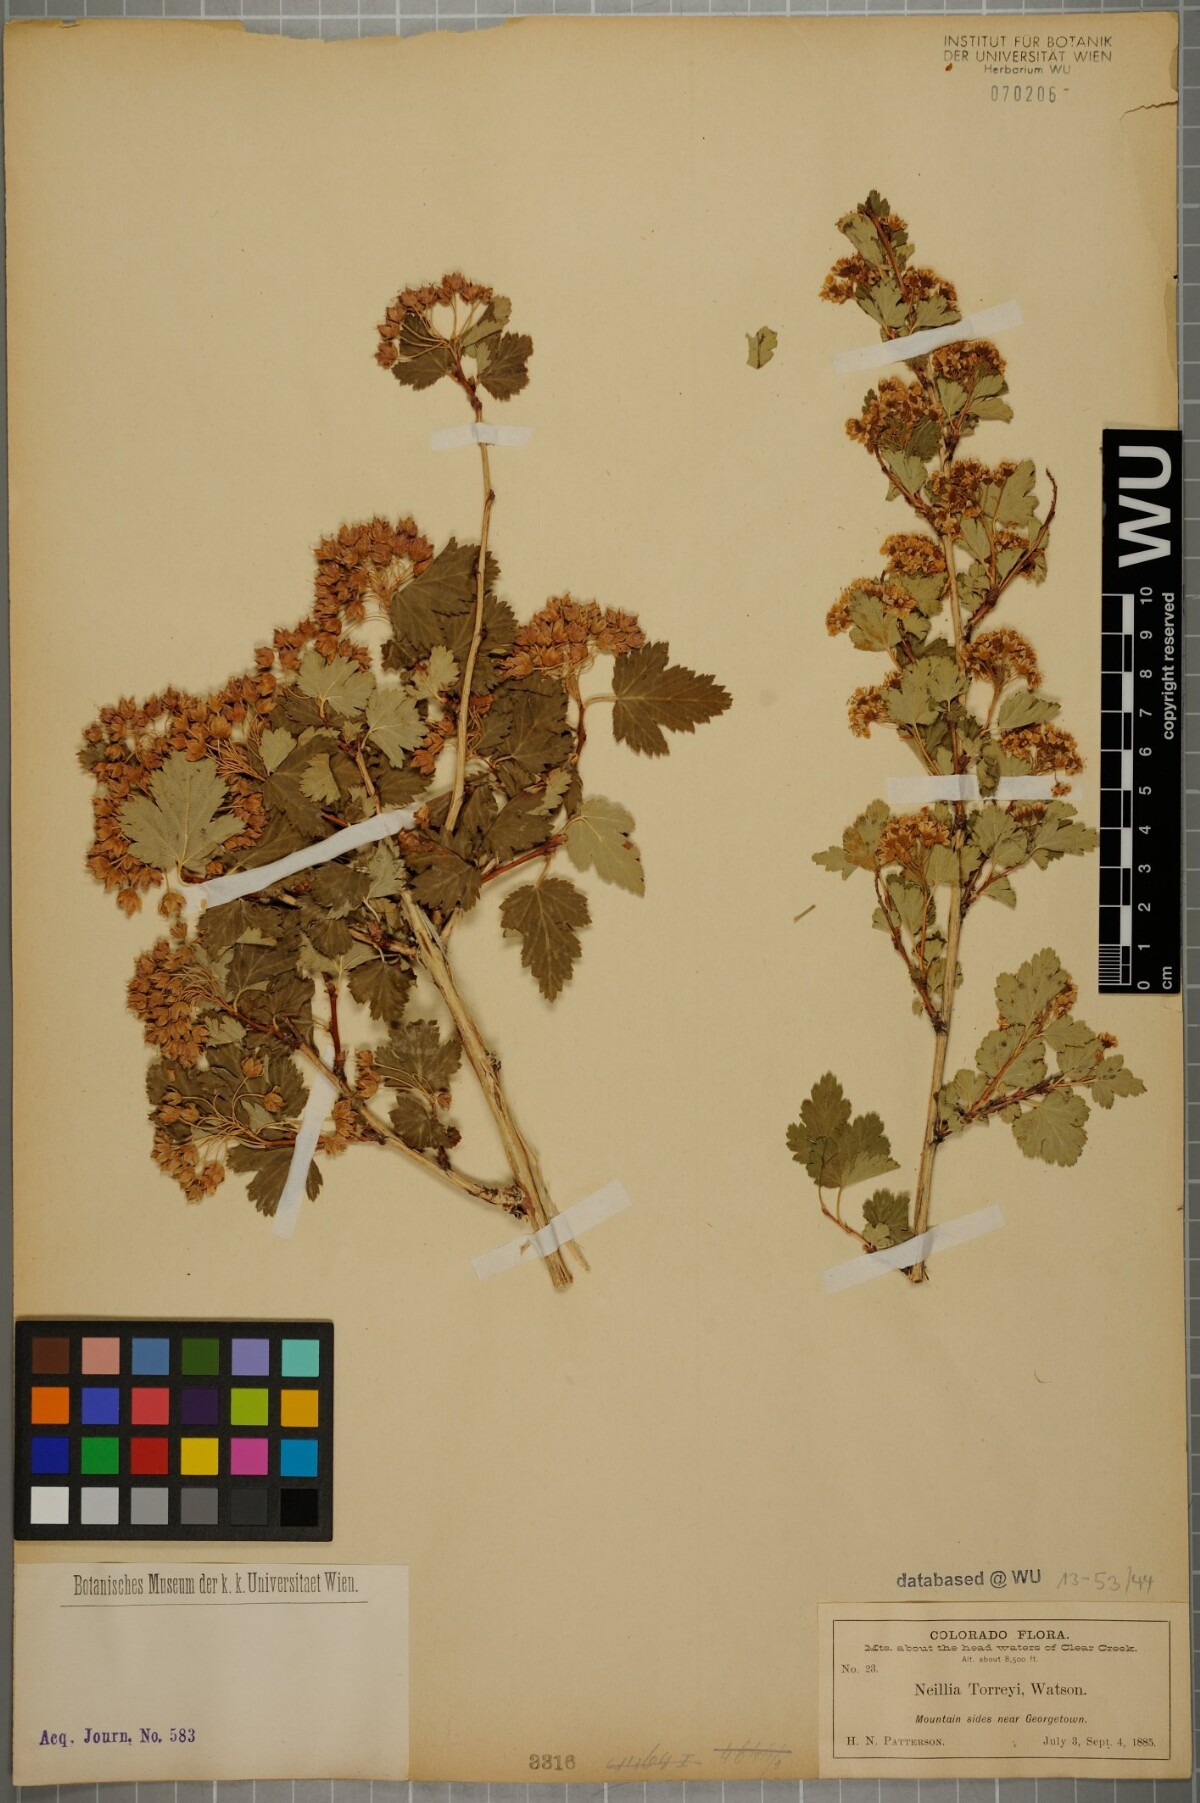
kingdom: Plantae
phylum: Tracheophyta
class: Magnoliopsida
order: Rosales
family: Rosaceae
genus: Physocarpus
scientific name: Physocarpus monogynus
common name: Mountain ninebark
